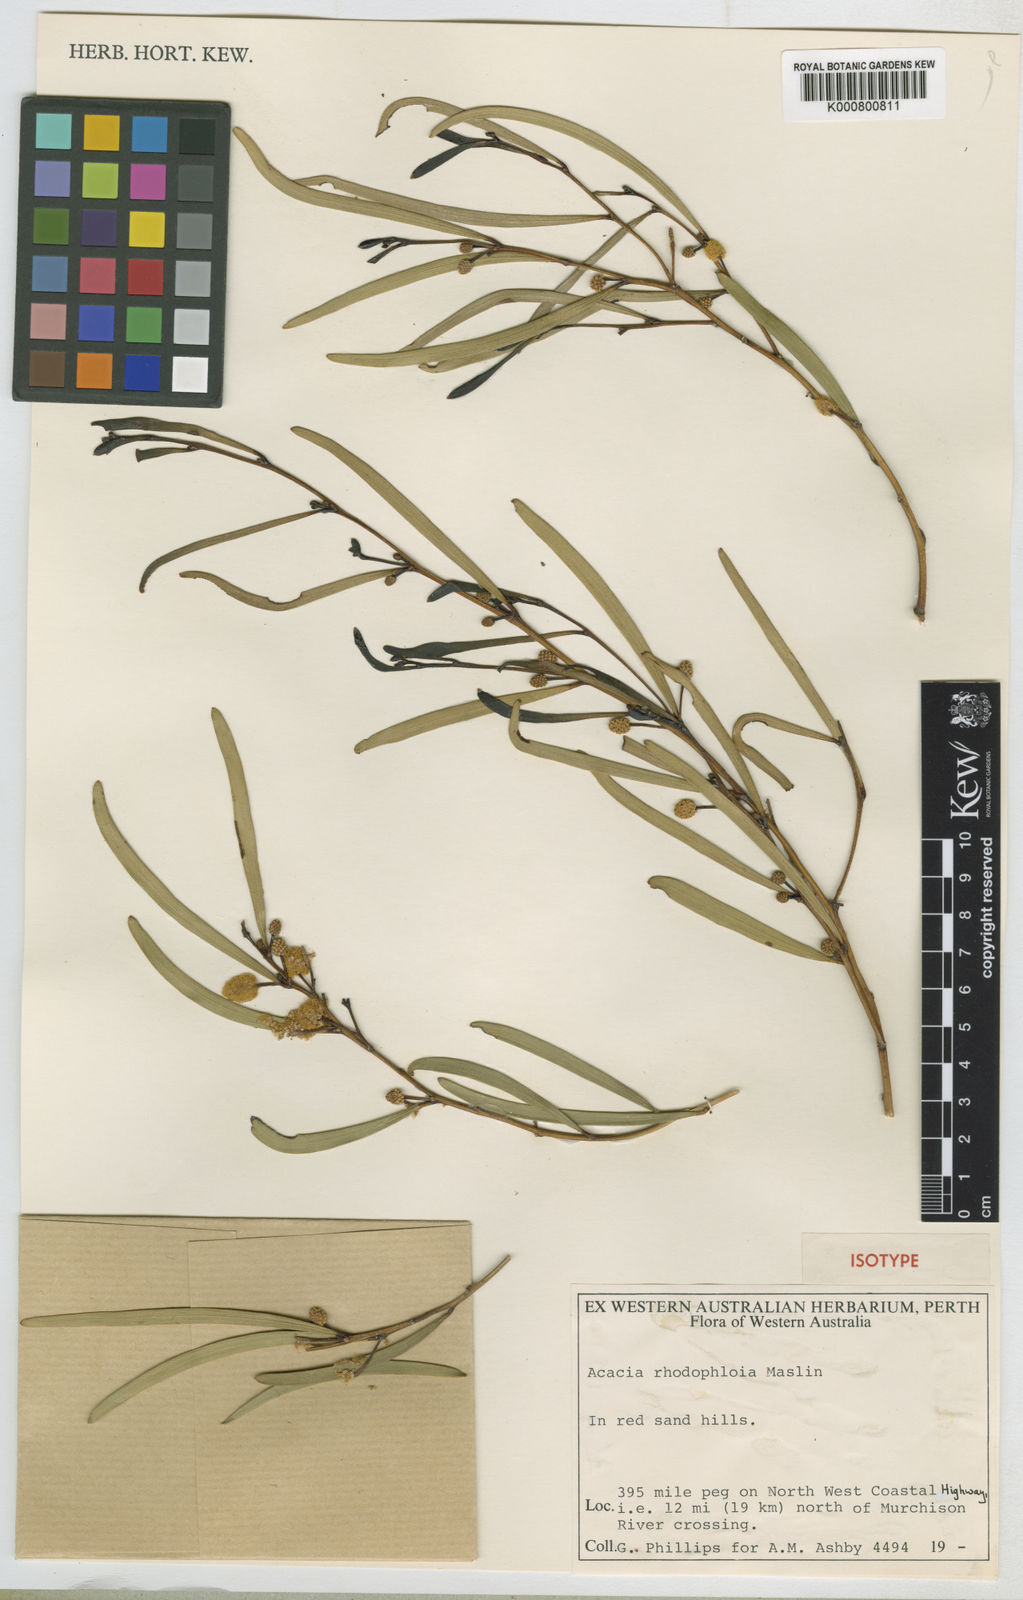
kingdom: Plantae
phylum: Tracheophyta
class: Magnoliopsida
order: Fabales
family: Fabaceae
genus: Acacia
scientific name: Acacia rhodophloia
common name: Minni ritchi
